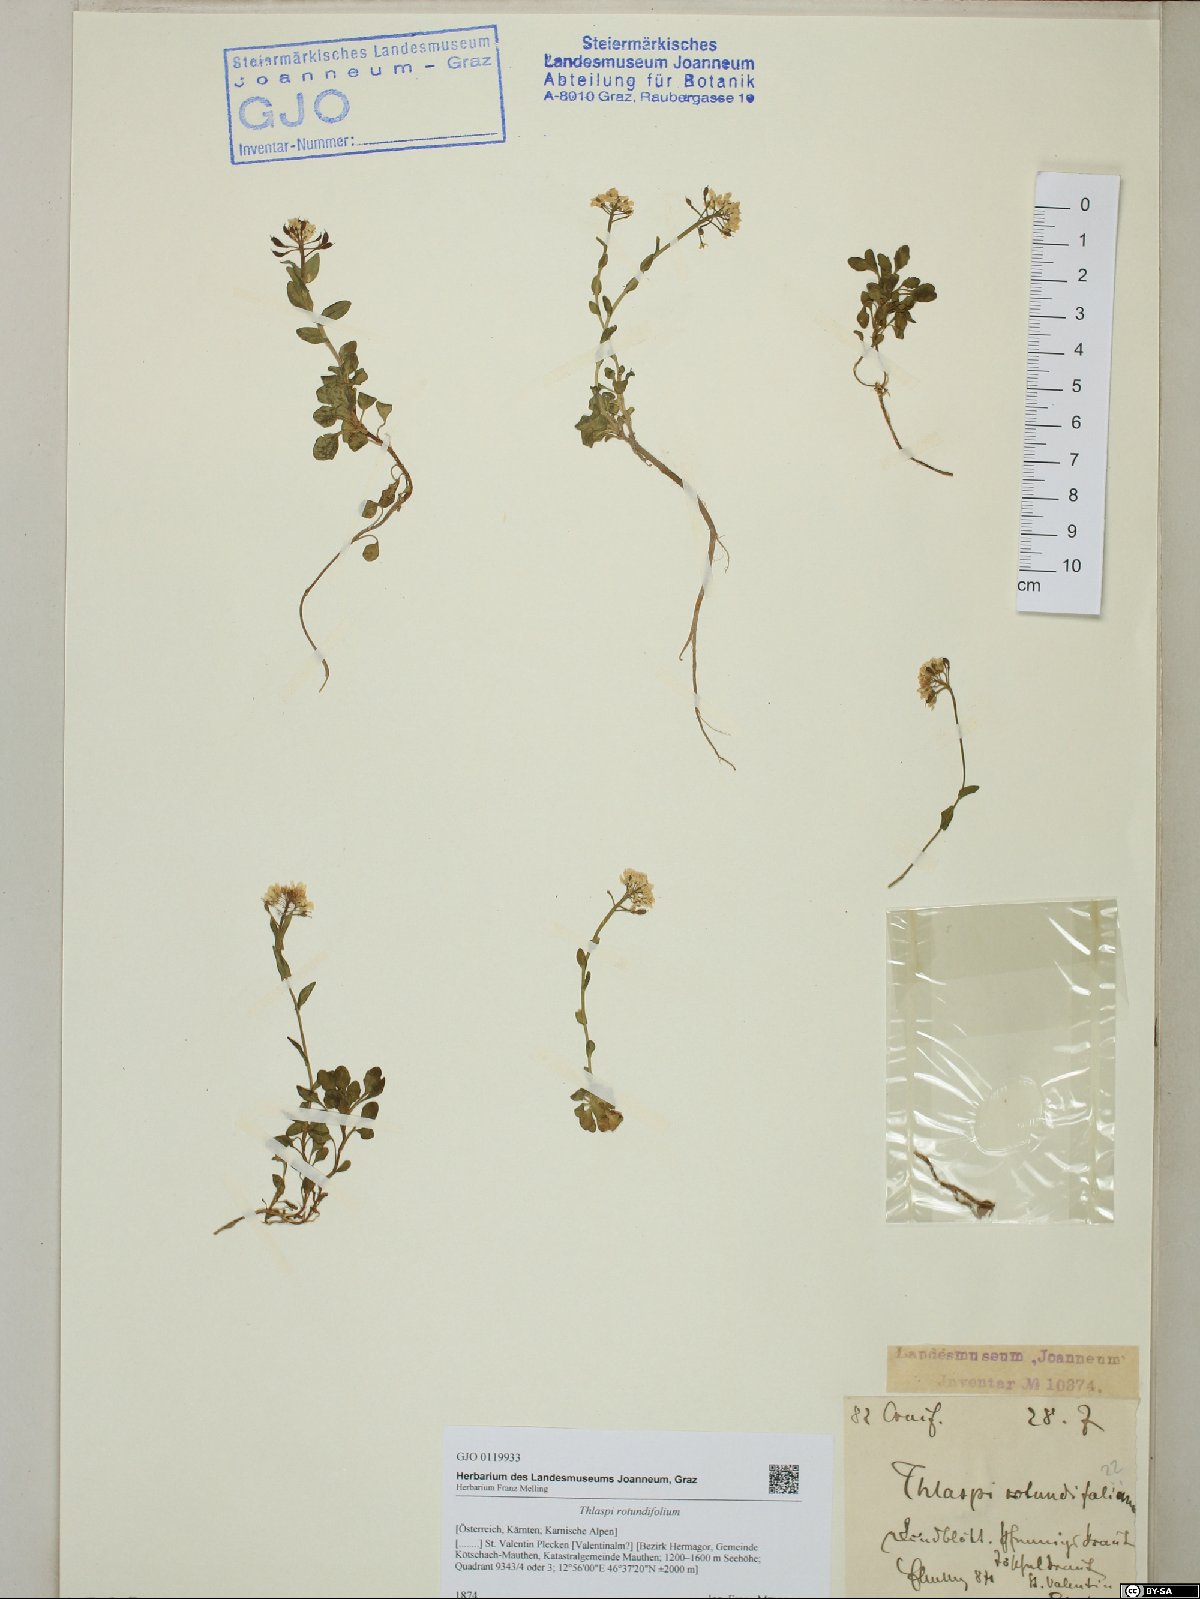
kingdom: Plantae
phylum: Tracheophyta
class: Magnoliopsida
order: Brassicales
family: Brassicaceae
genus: Noccaea
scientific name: Noccaea rotundifolia
